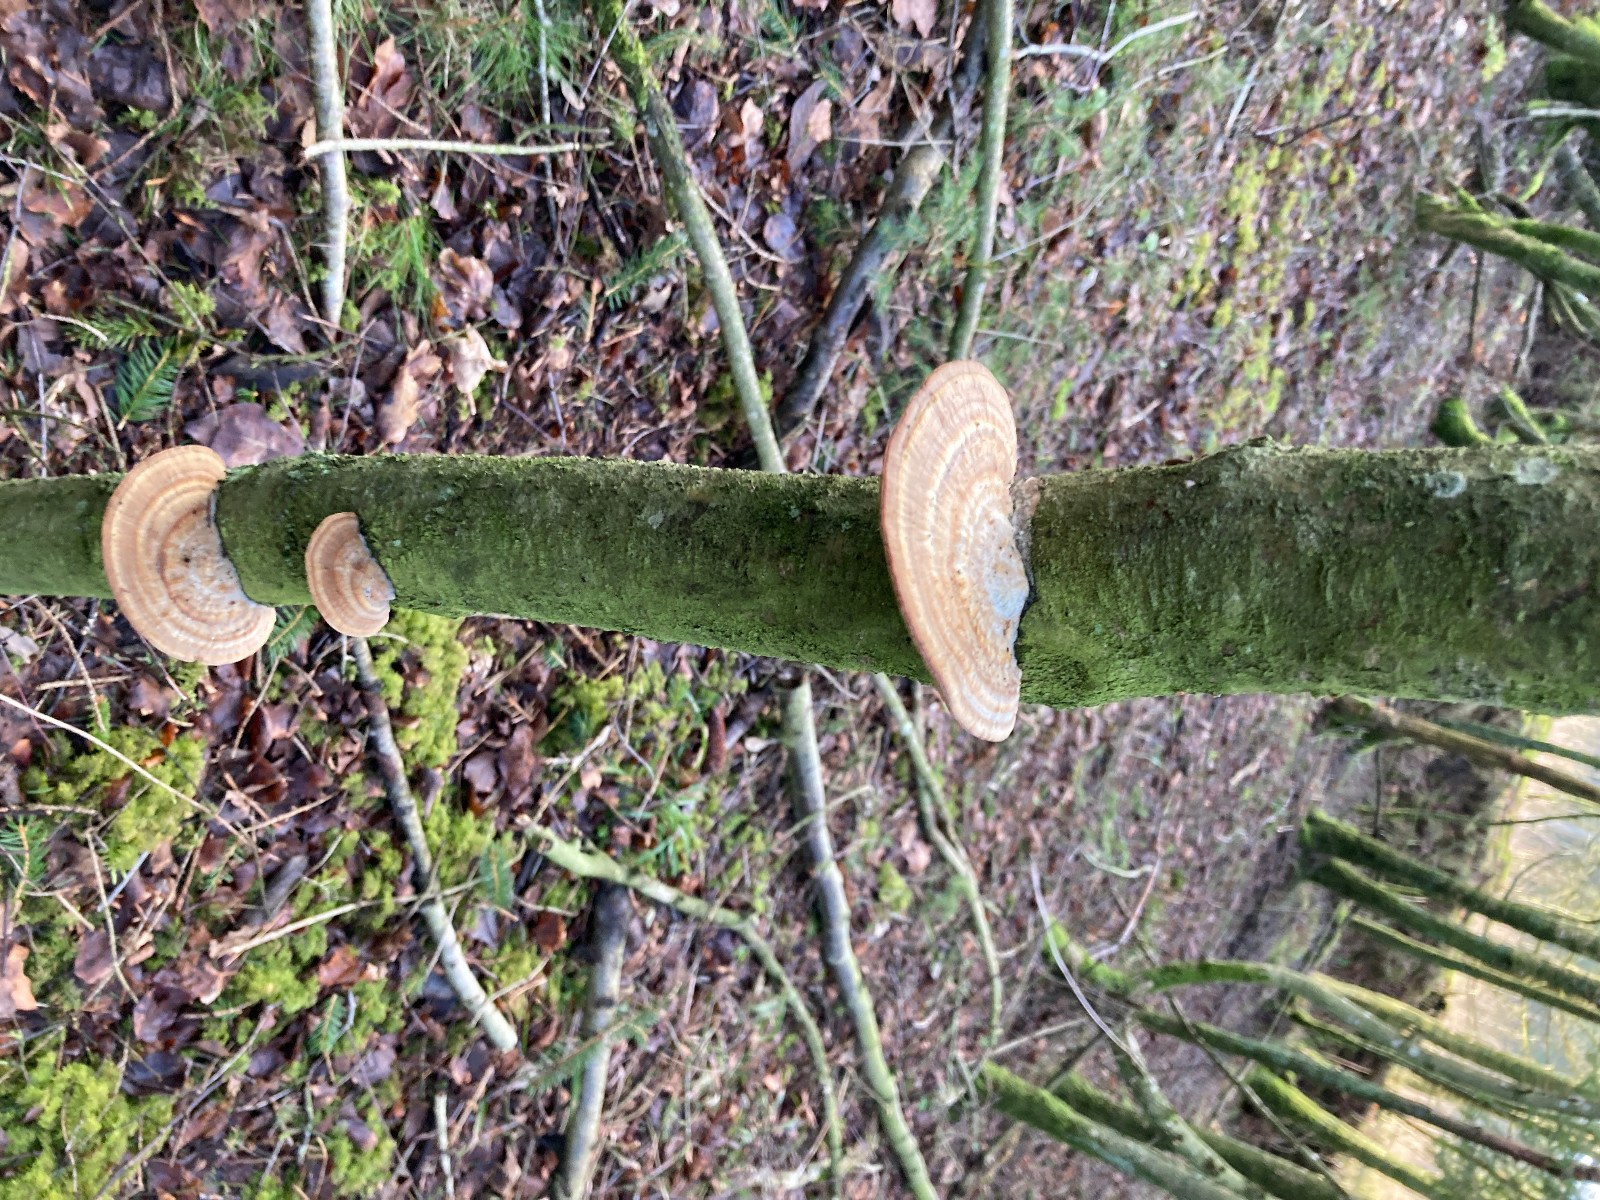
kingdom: Fungi
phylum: Basidiomycota
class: Agaricomycetes
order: Polyporales
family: Polyporaceae
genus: Daedaleopsis
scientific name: Daedaleopsis confragosa
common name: rødmende læderporesvamp
